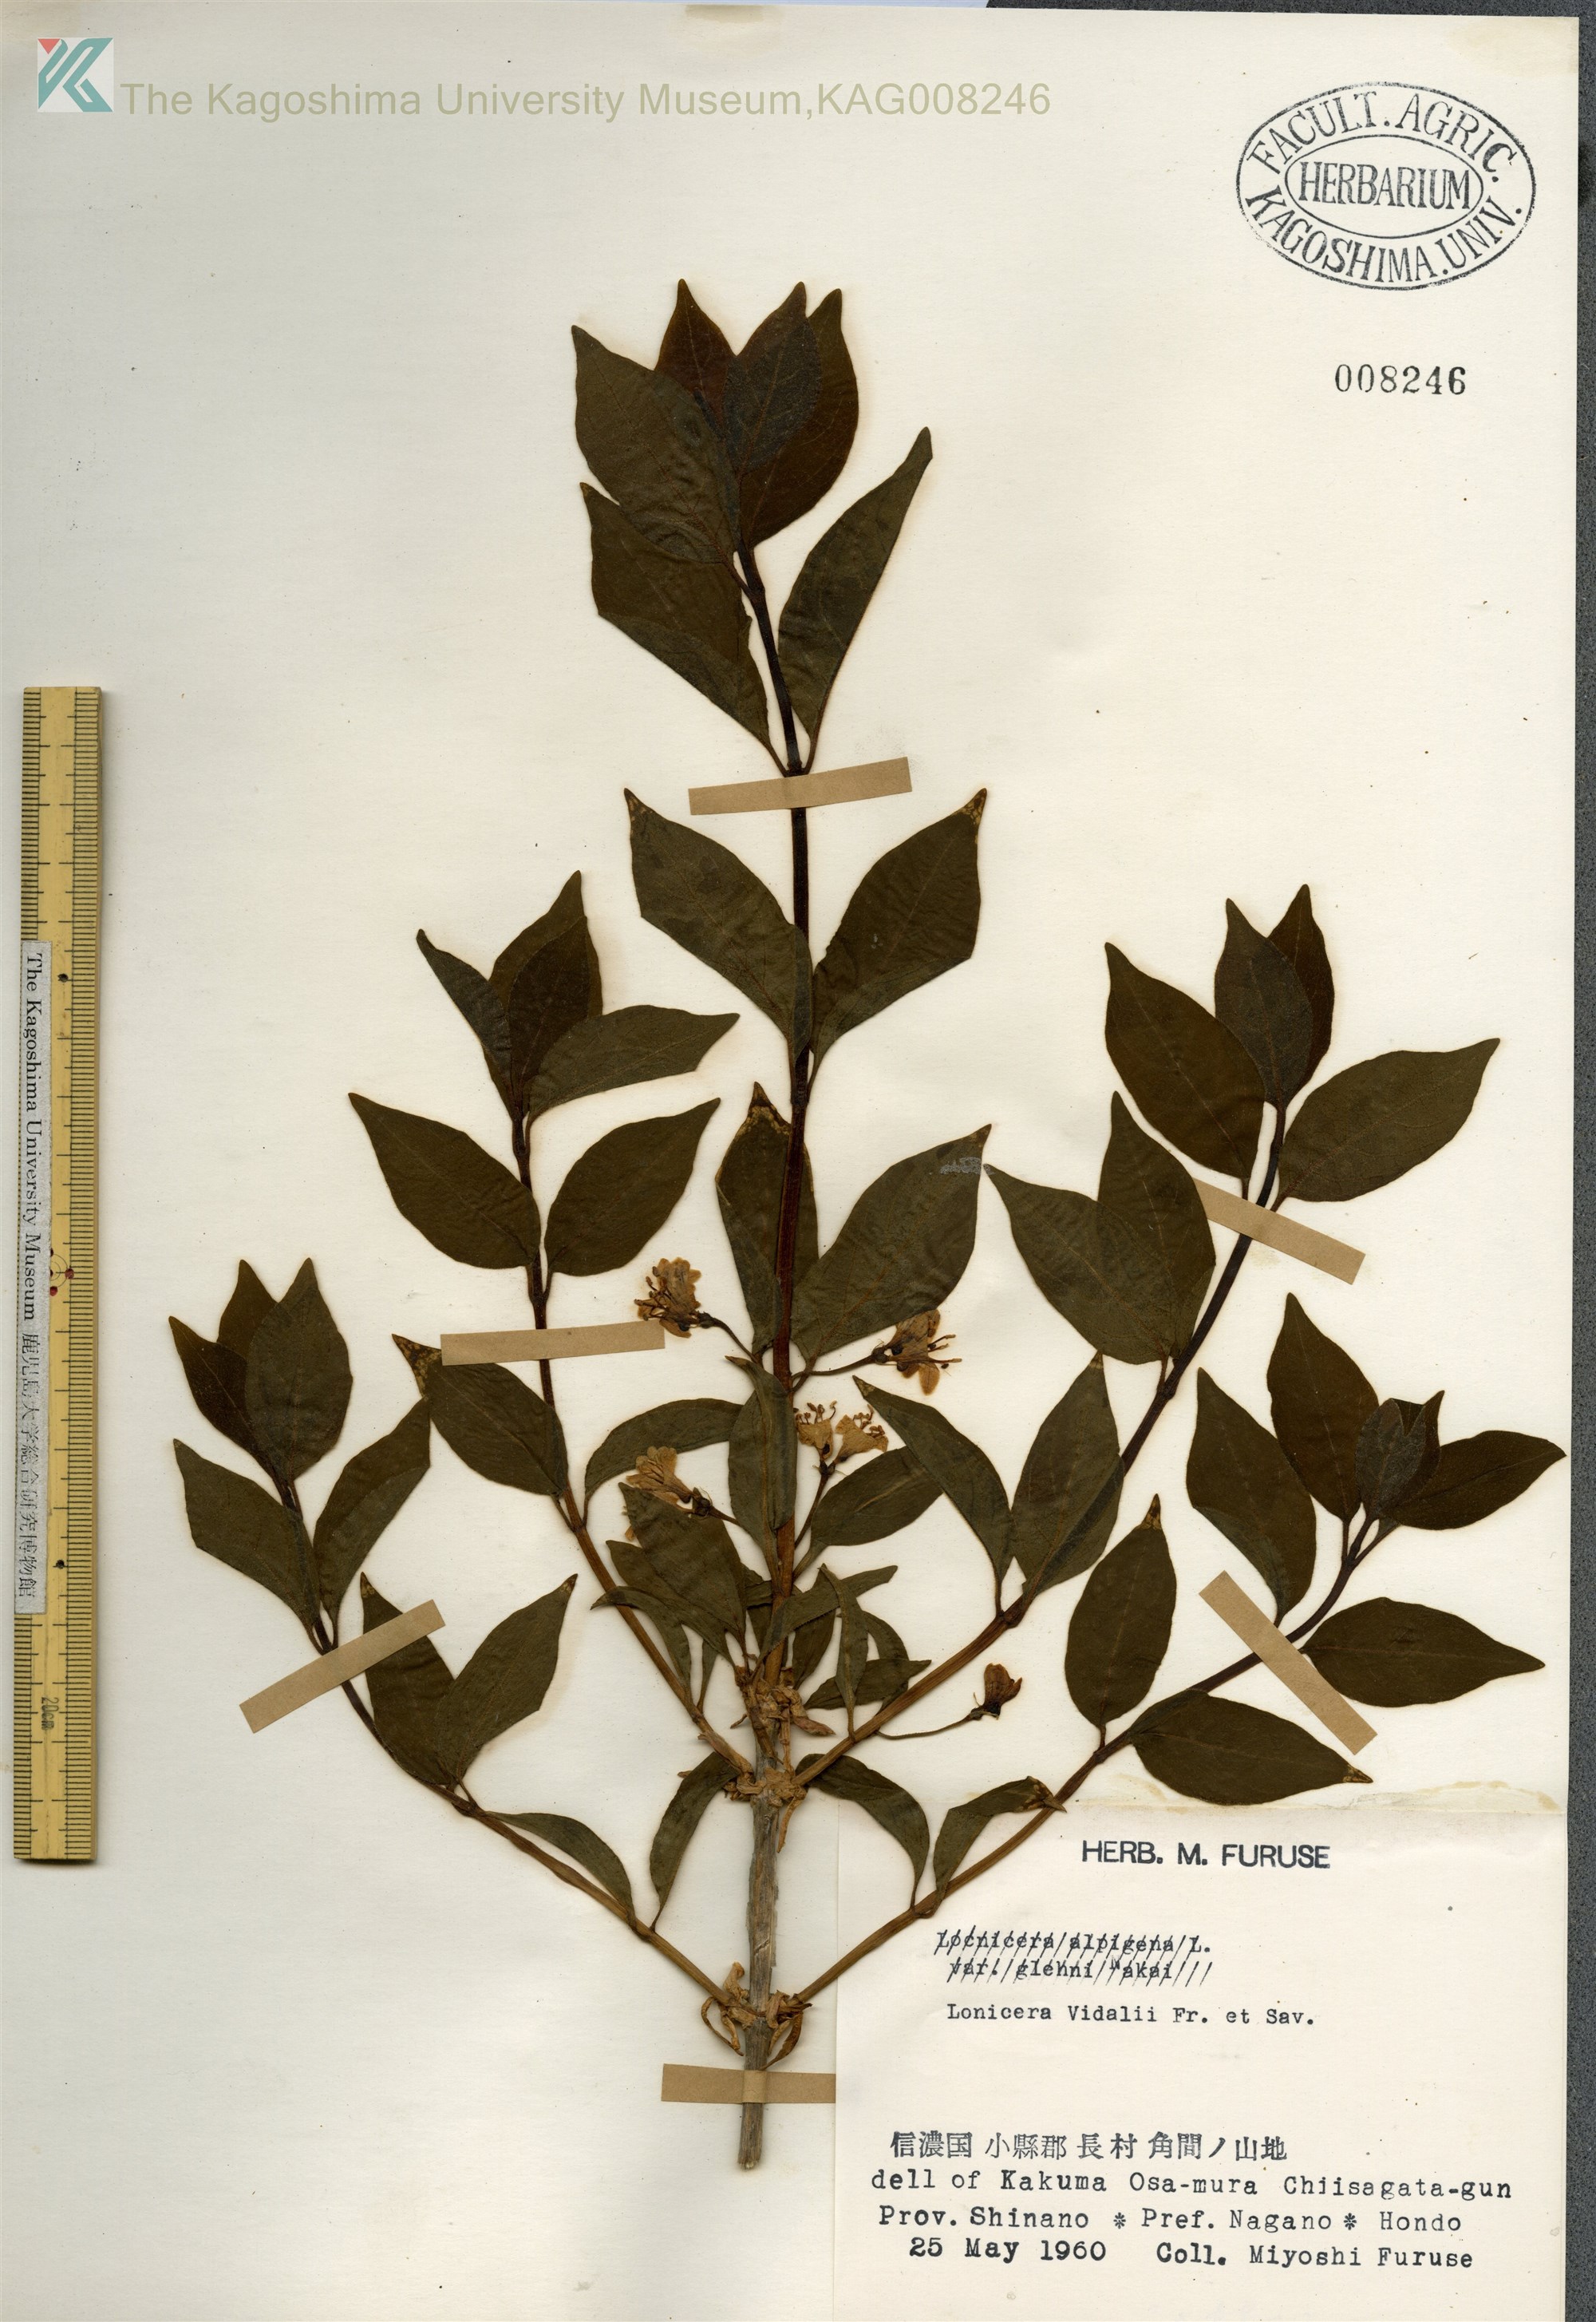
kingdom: Plantae
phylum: Tracheophyta
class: Magnoliopsida
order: Dipsacales
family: Caprifoliaceae
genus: Lonicera
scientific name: Lonicera vidalii
